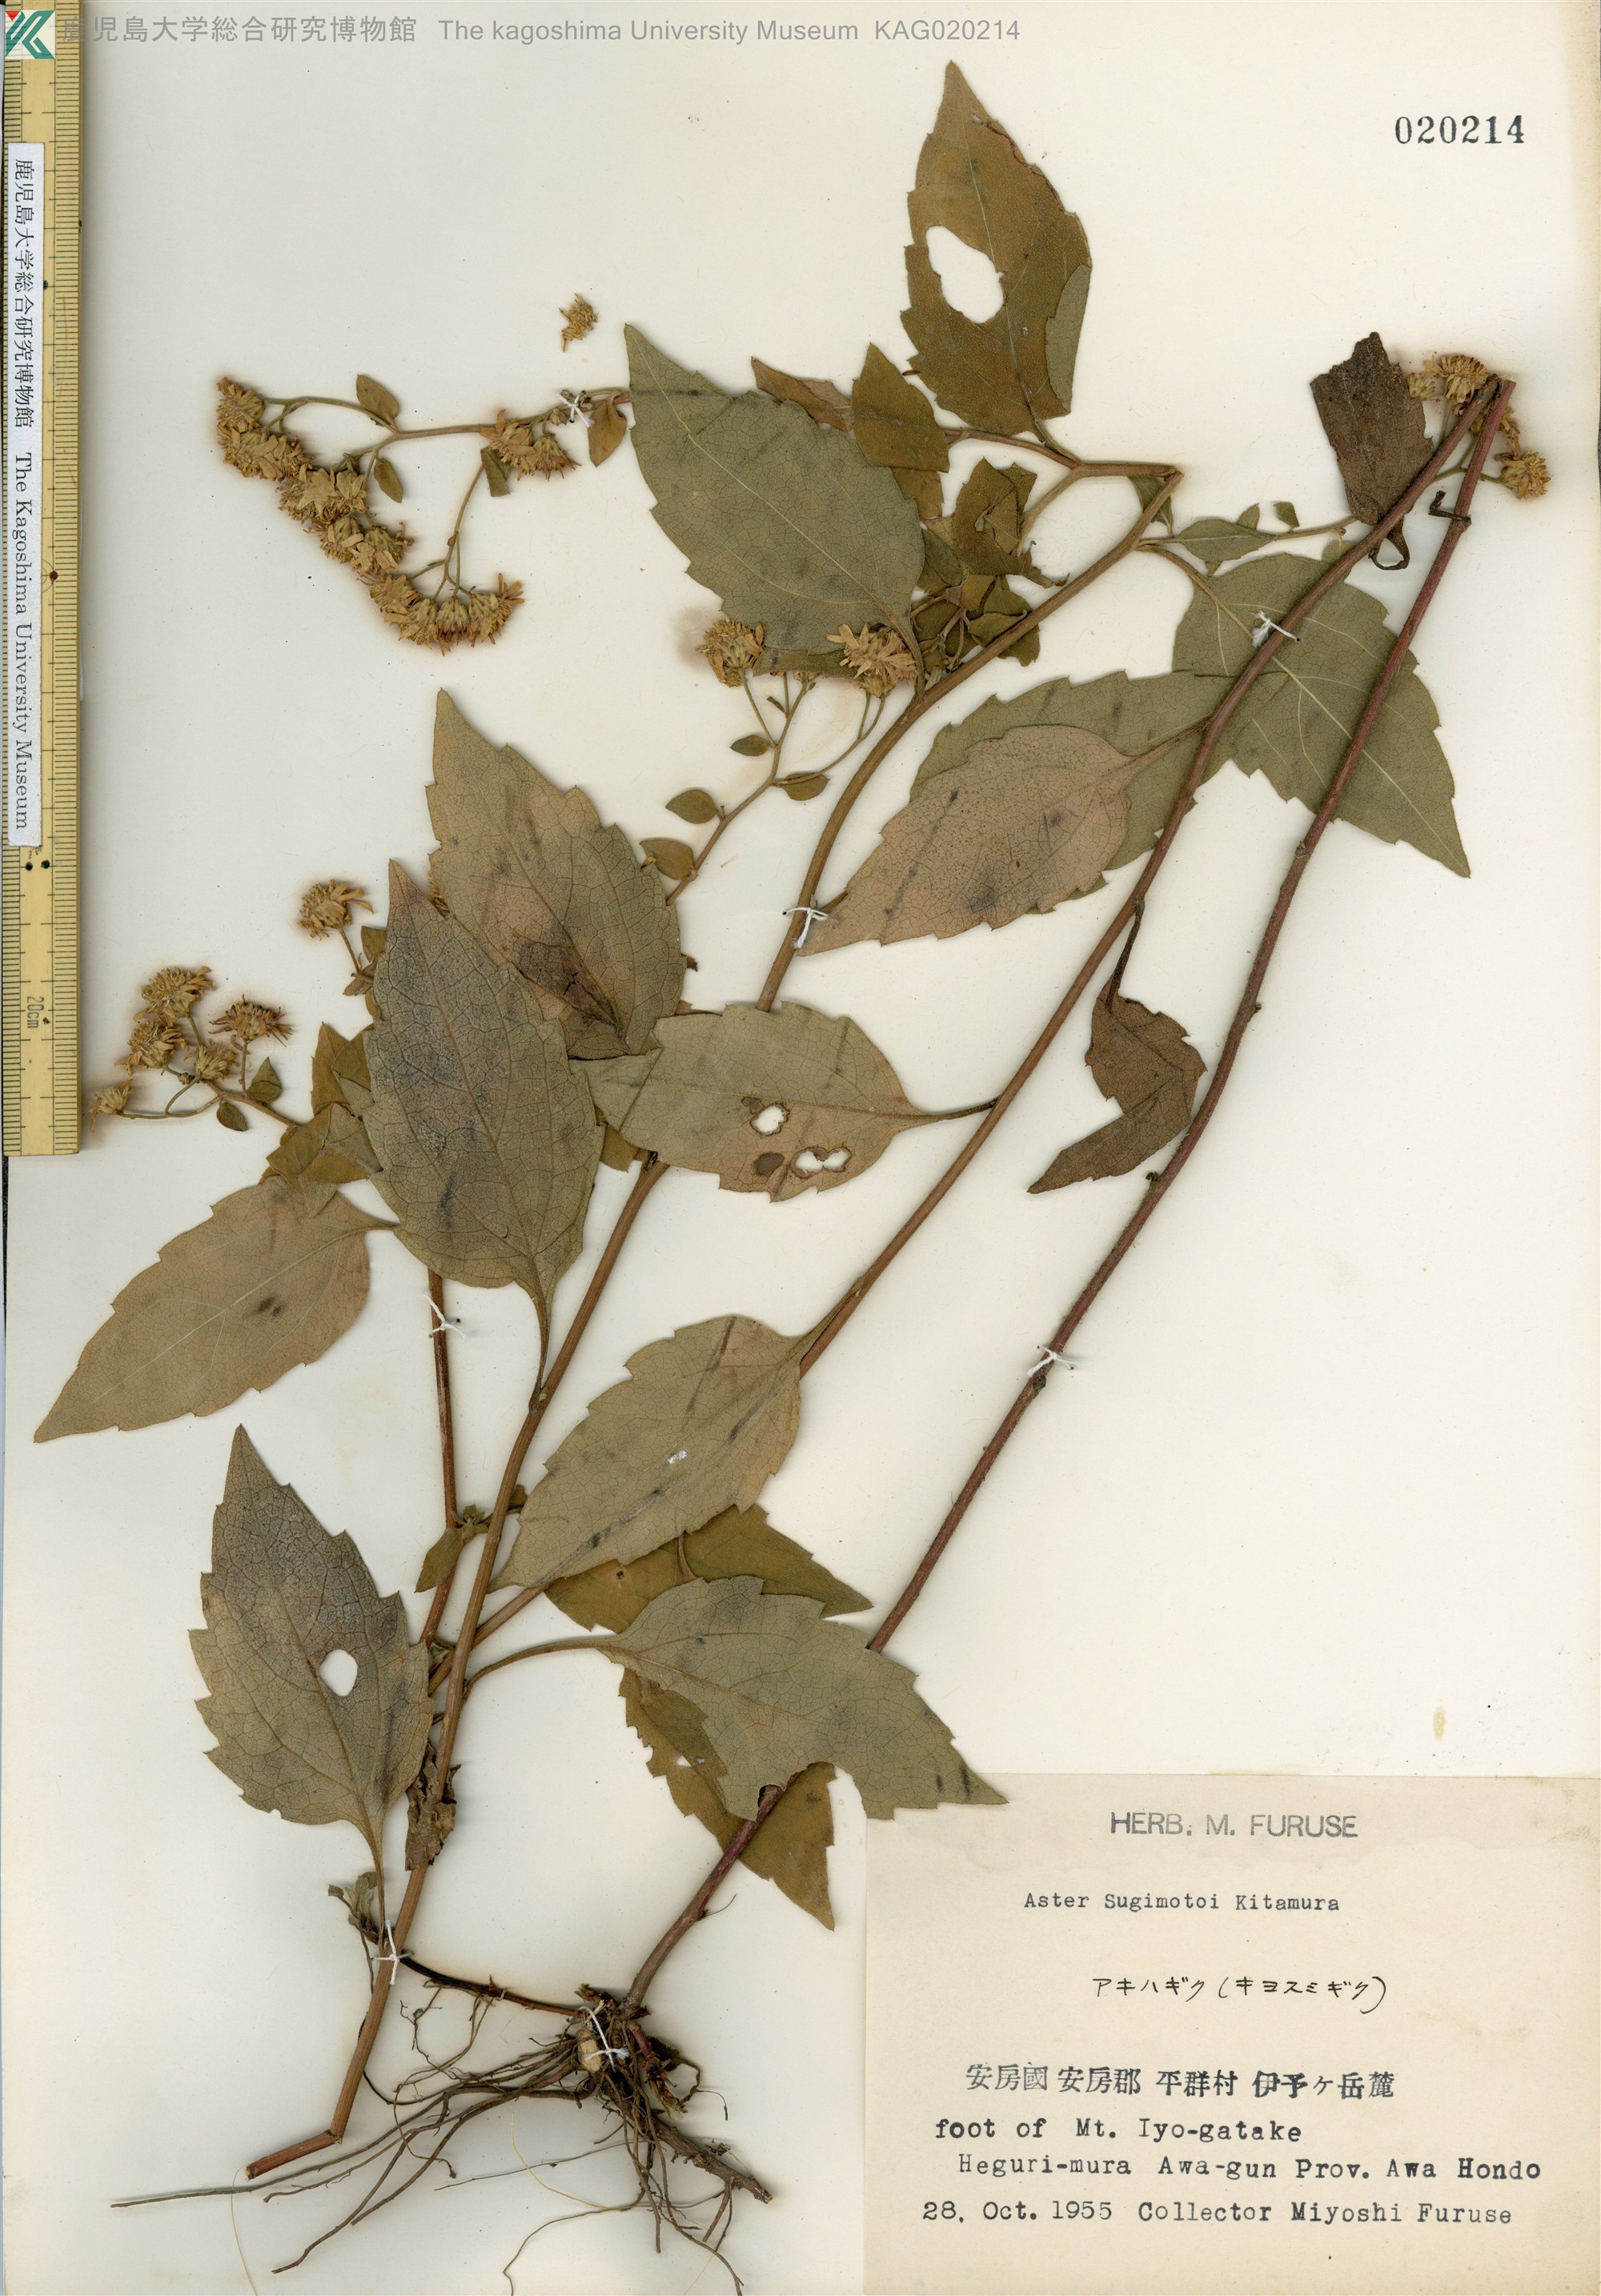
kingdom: Plantae
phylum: Tracheophyta
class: Magnoliopsida
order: Asterales
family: Asteraceae
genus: Aster
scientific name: Aster sugimotoi
